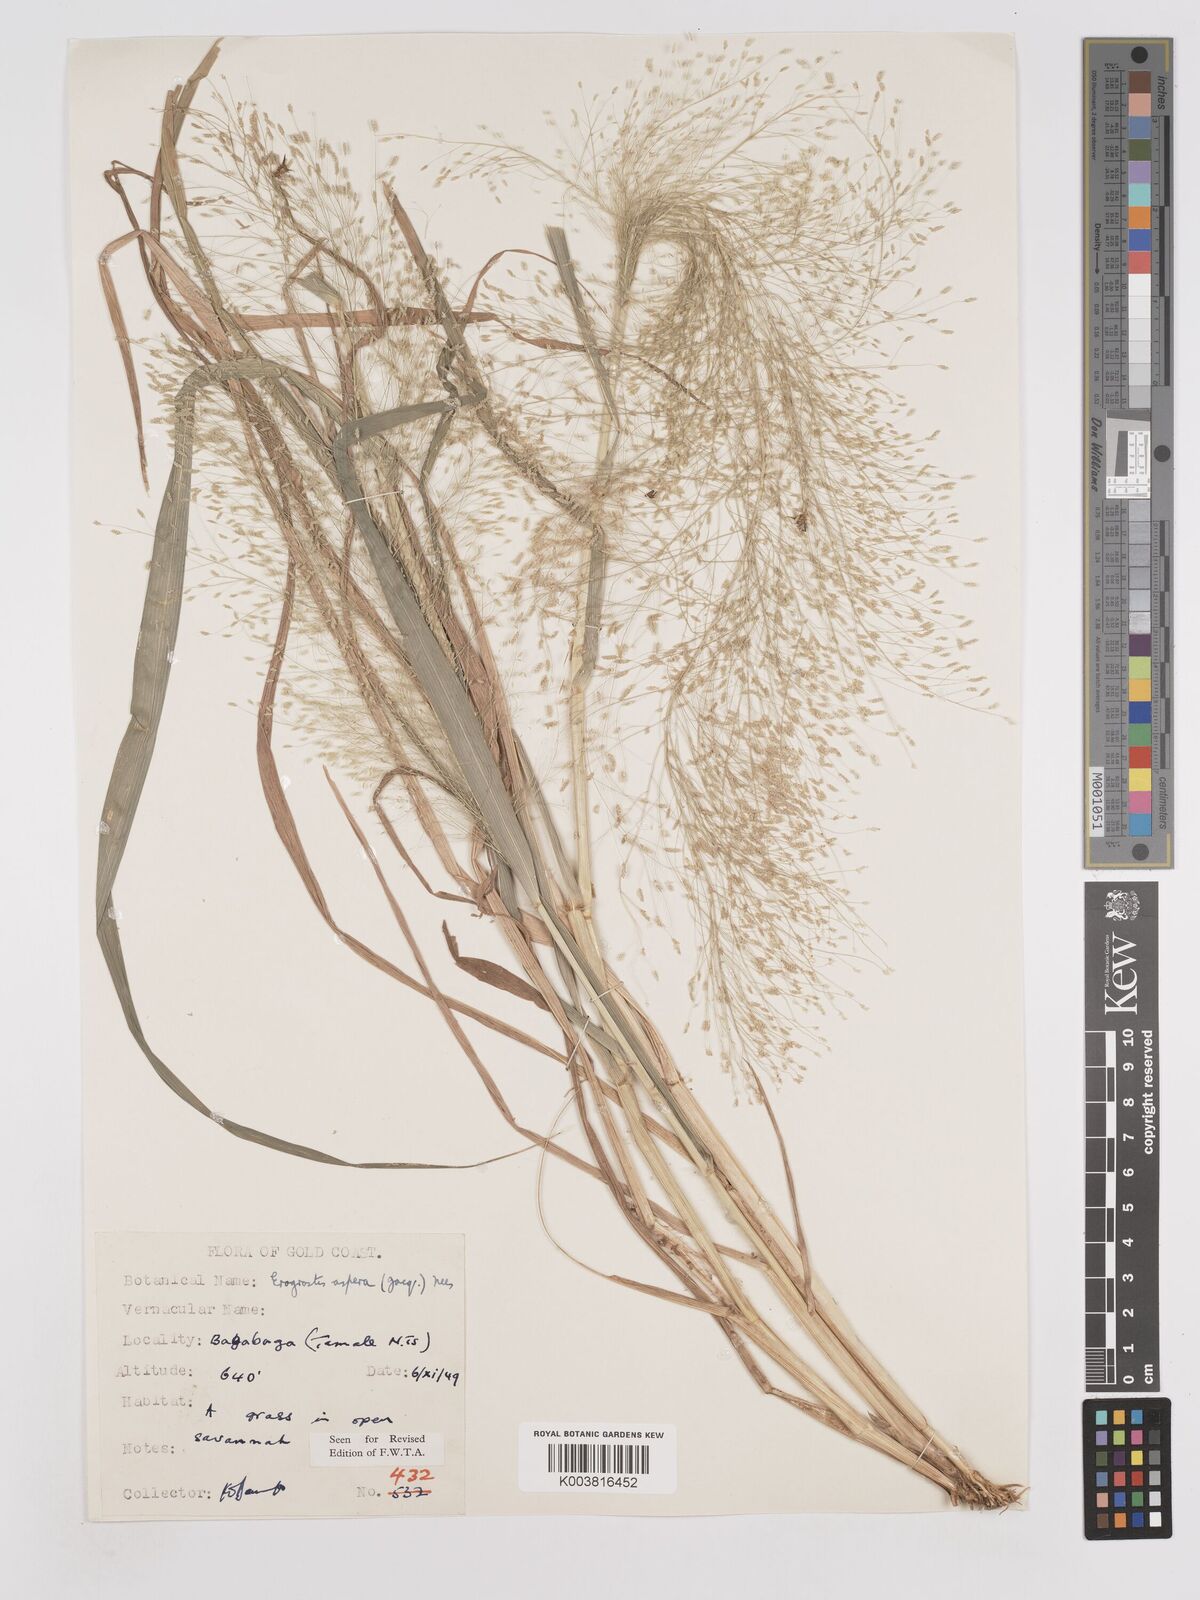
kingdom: Plantae
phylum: Tracheophyta
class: Liliopsida
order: Poales
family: Poaceae
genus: Eragrostis
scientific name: Eragrostis aspera
